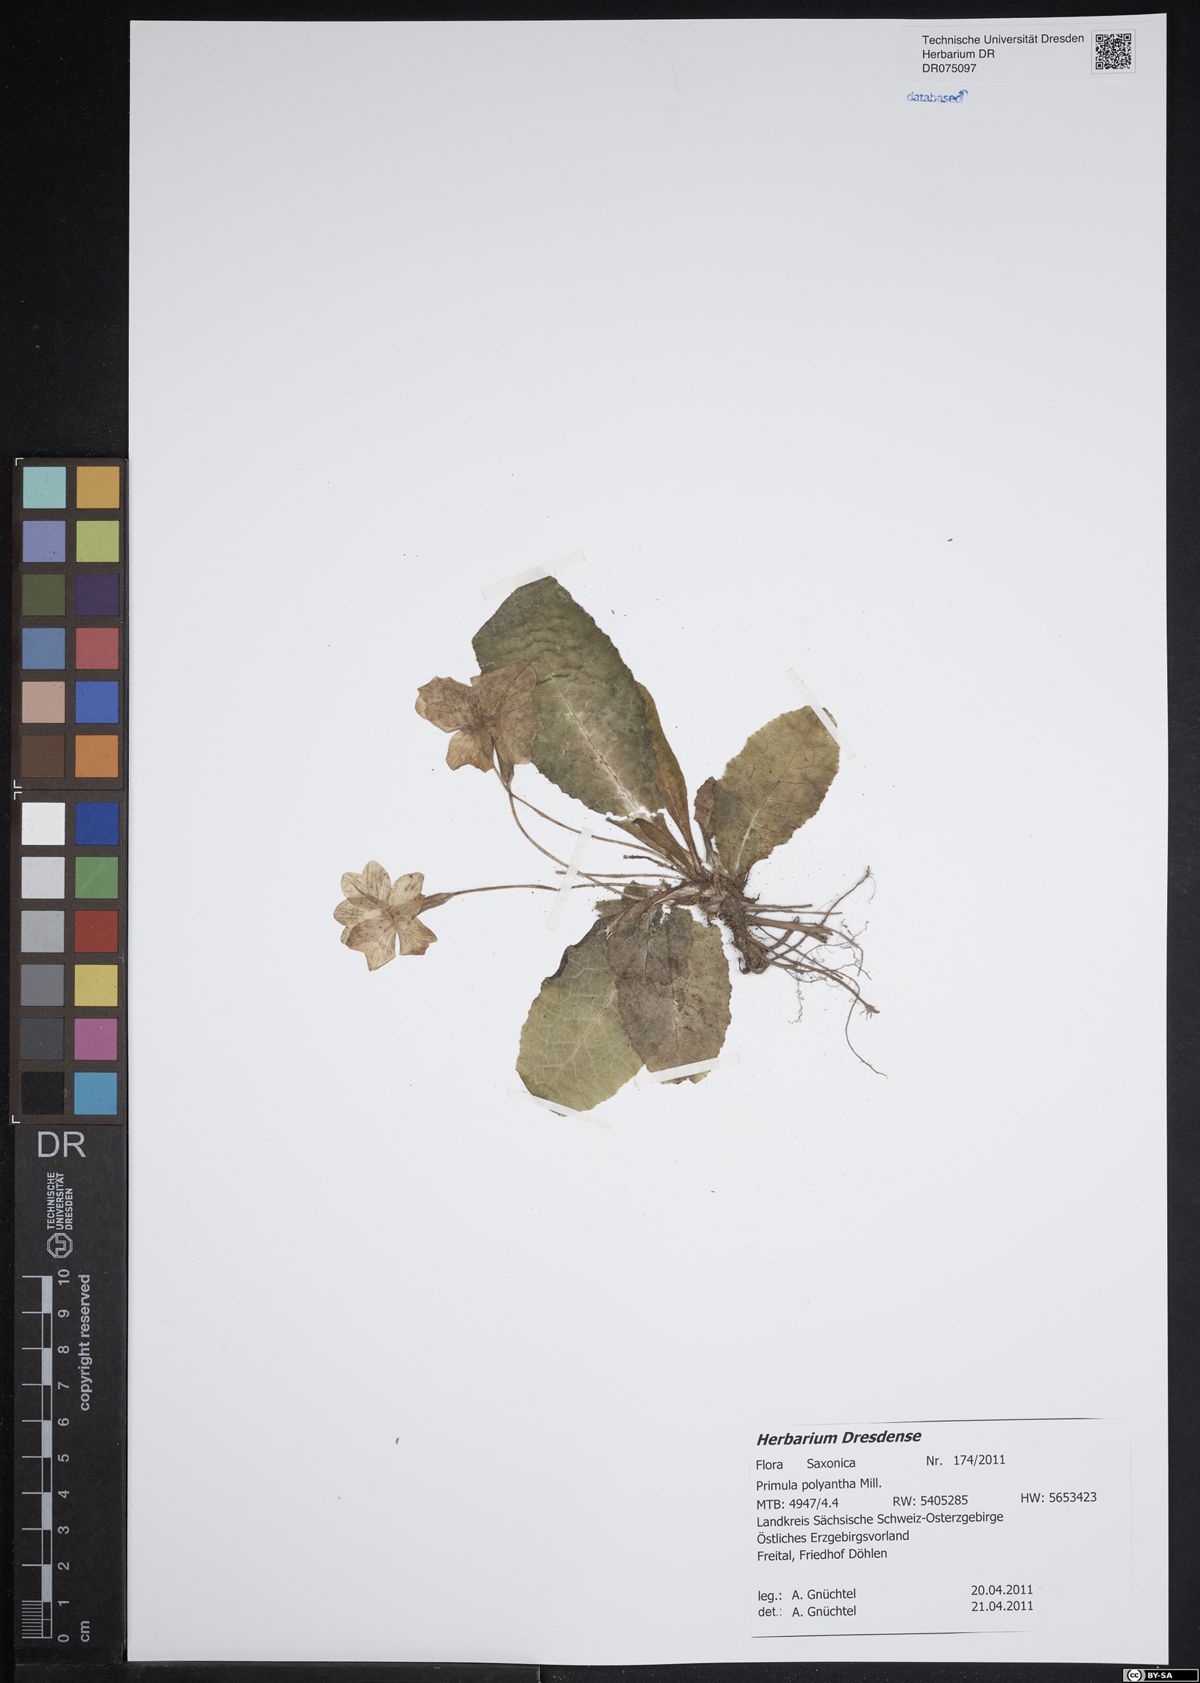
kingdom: Plantae
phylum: Tracheophyta
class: Magnoliopsida
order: Ericales
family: Primulaceae
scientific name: Primulaceae
